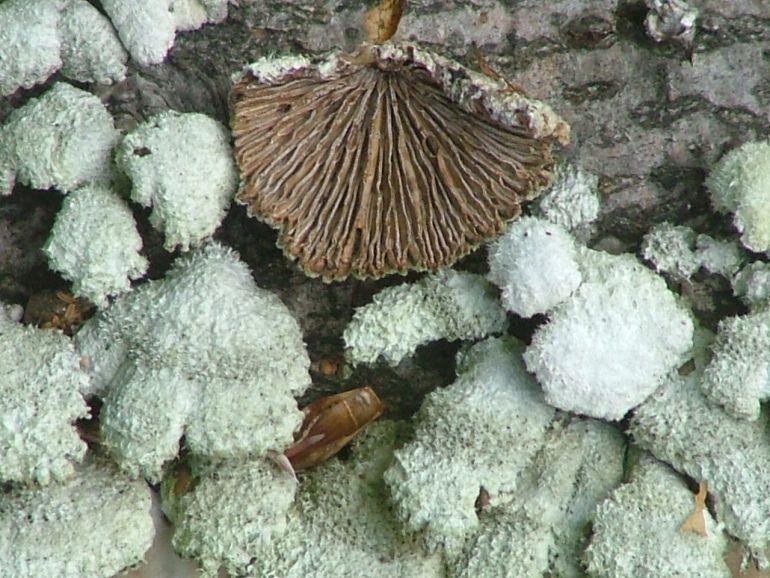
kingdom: Fungi
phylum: Basidiomycota
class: Agaricomycetes
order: Agaricales
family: Schizophyllaceae
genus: Schizophyllum
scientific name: Schizophyllum commune
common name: kløvblad
